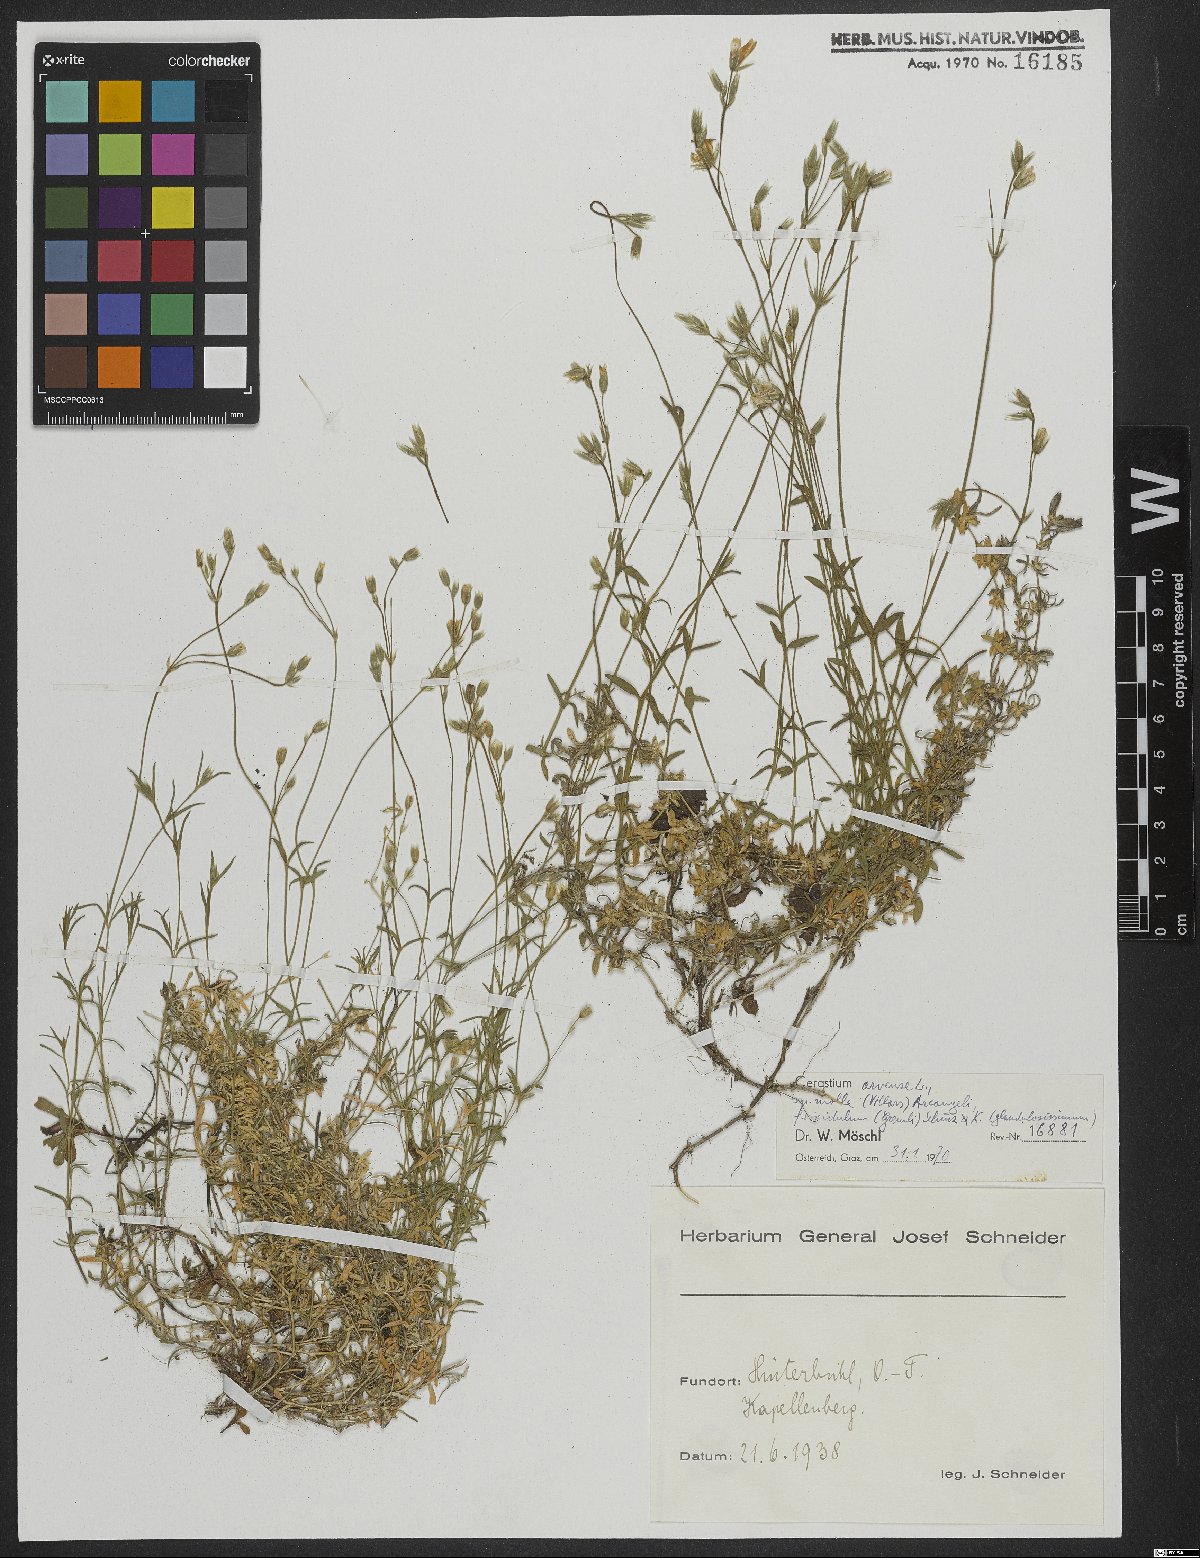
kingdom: Plantae
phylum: Tracheophyta
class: Magnoliopsida
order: Caryophyllales
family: Caryophyllaceae
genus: Cerastium
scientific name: Cerastium arvense
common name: Field mouse-ear
